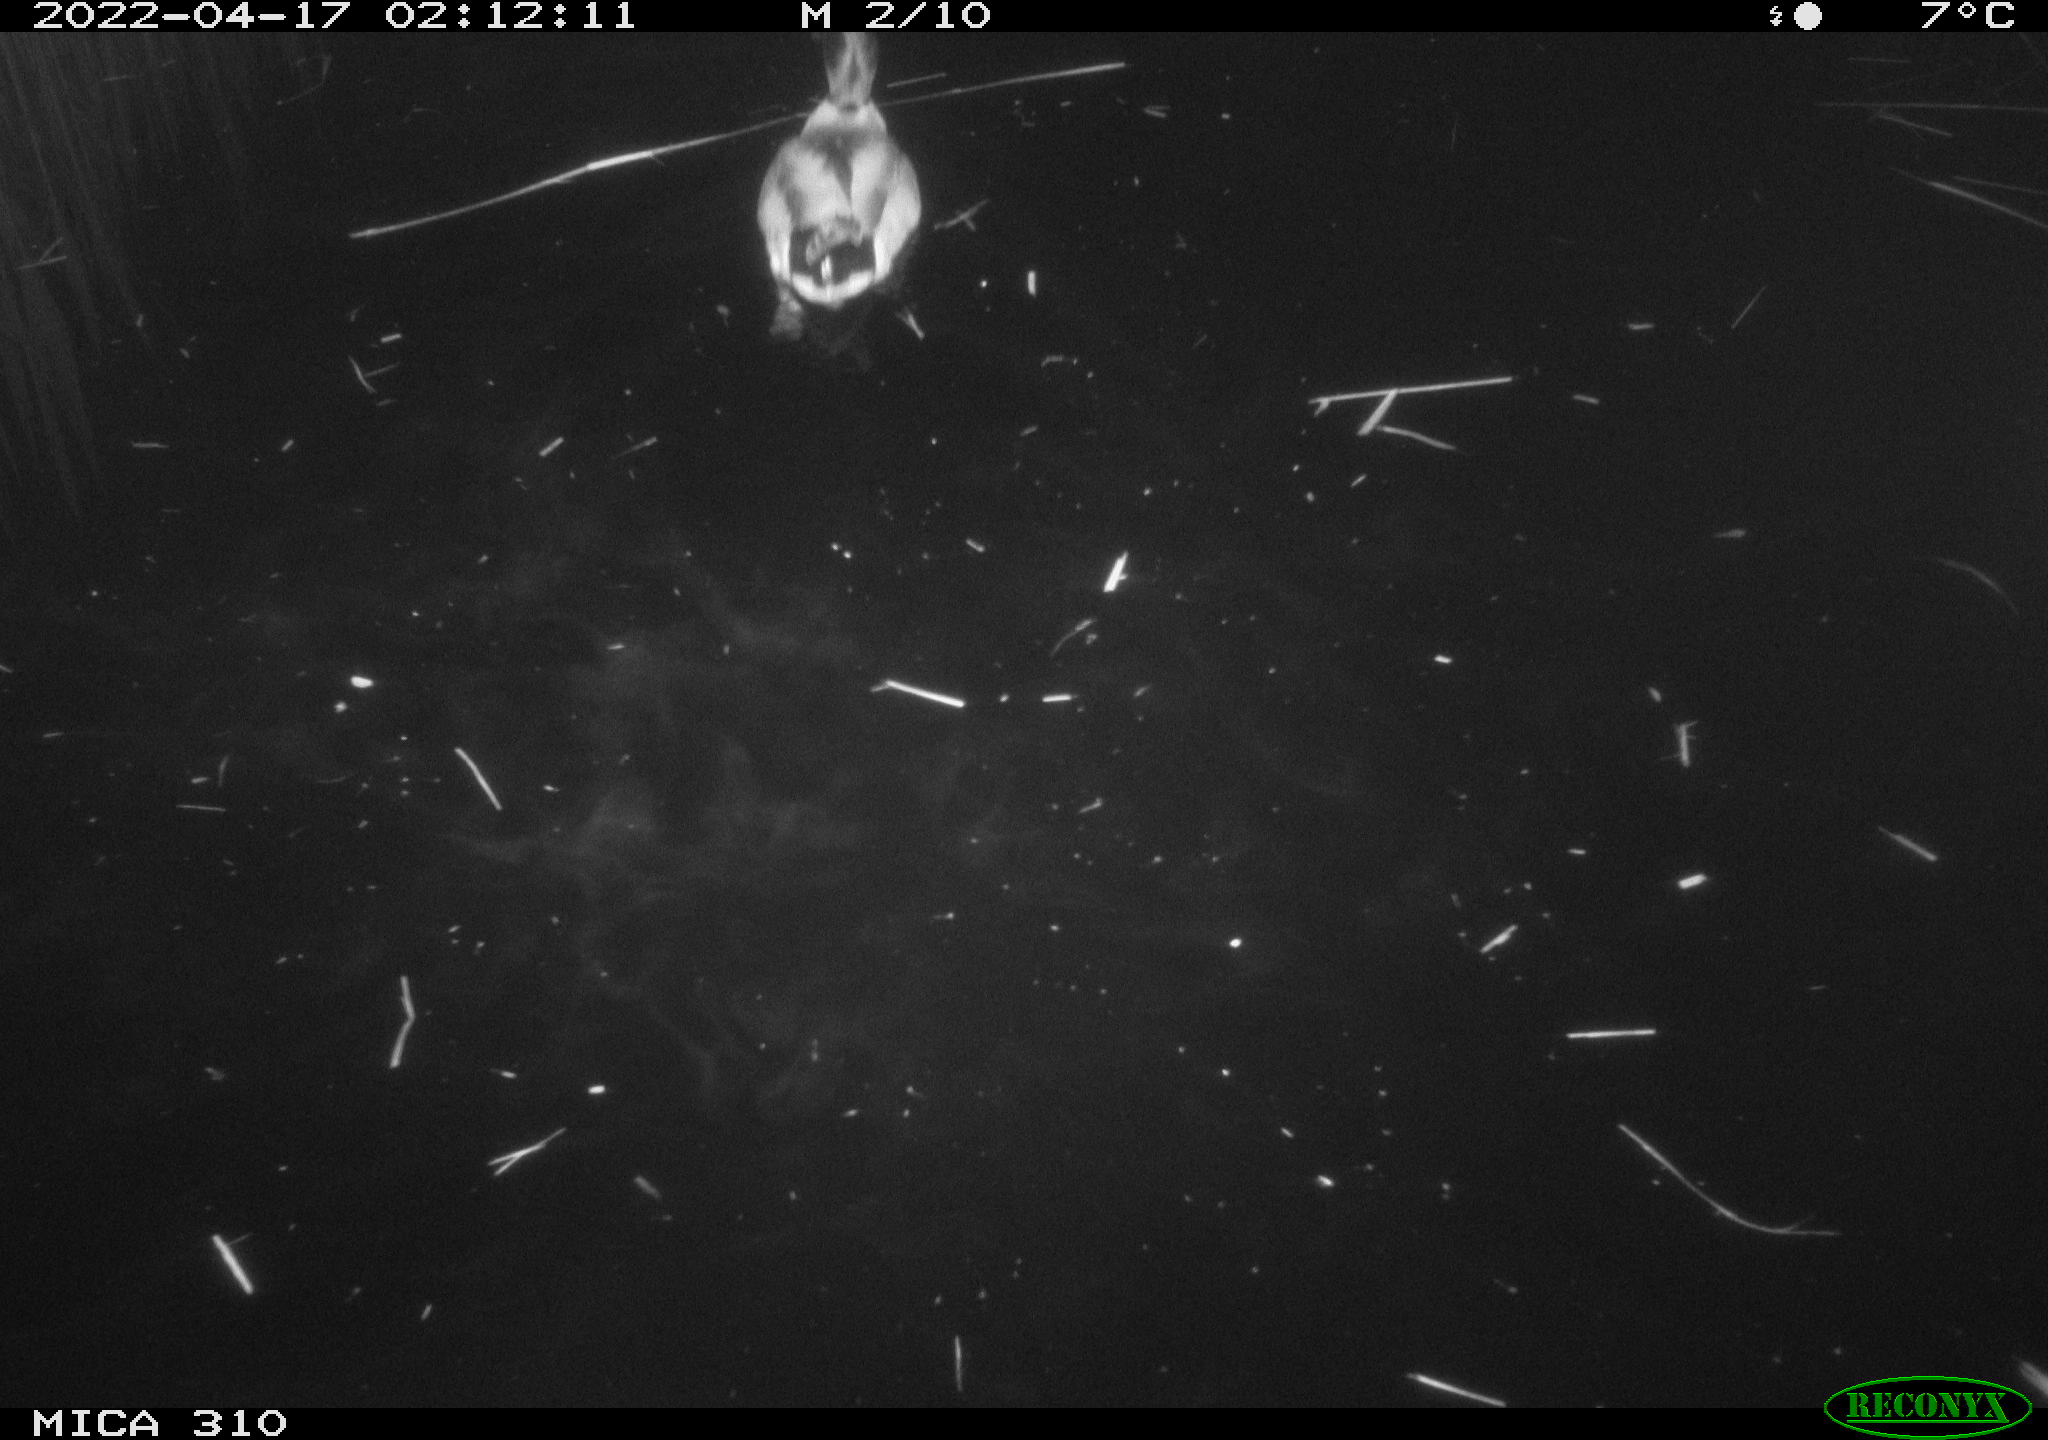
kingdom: Animalia
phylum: Chordata
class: Aves
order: Anseriformes
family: Anatidae
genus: Anas
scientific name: Anas platyrhynchos
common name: Mallard
